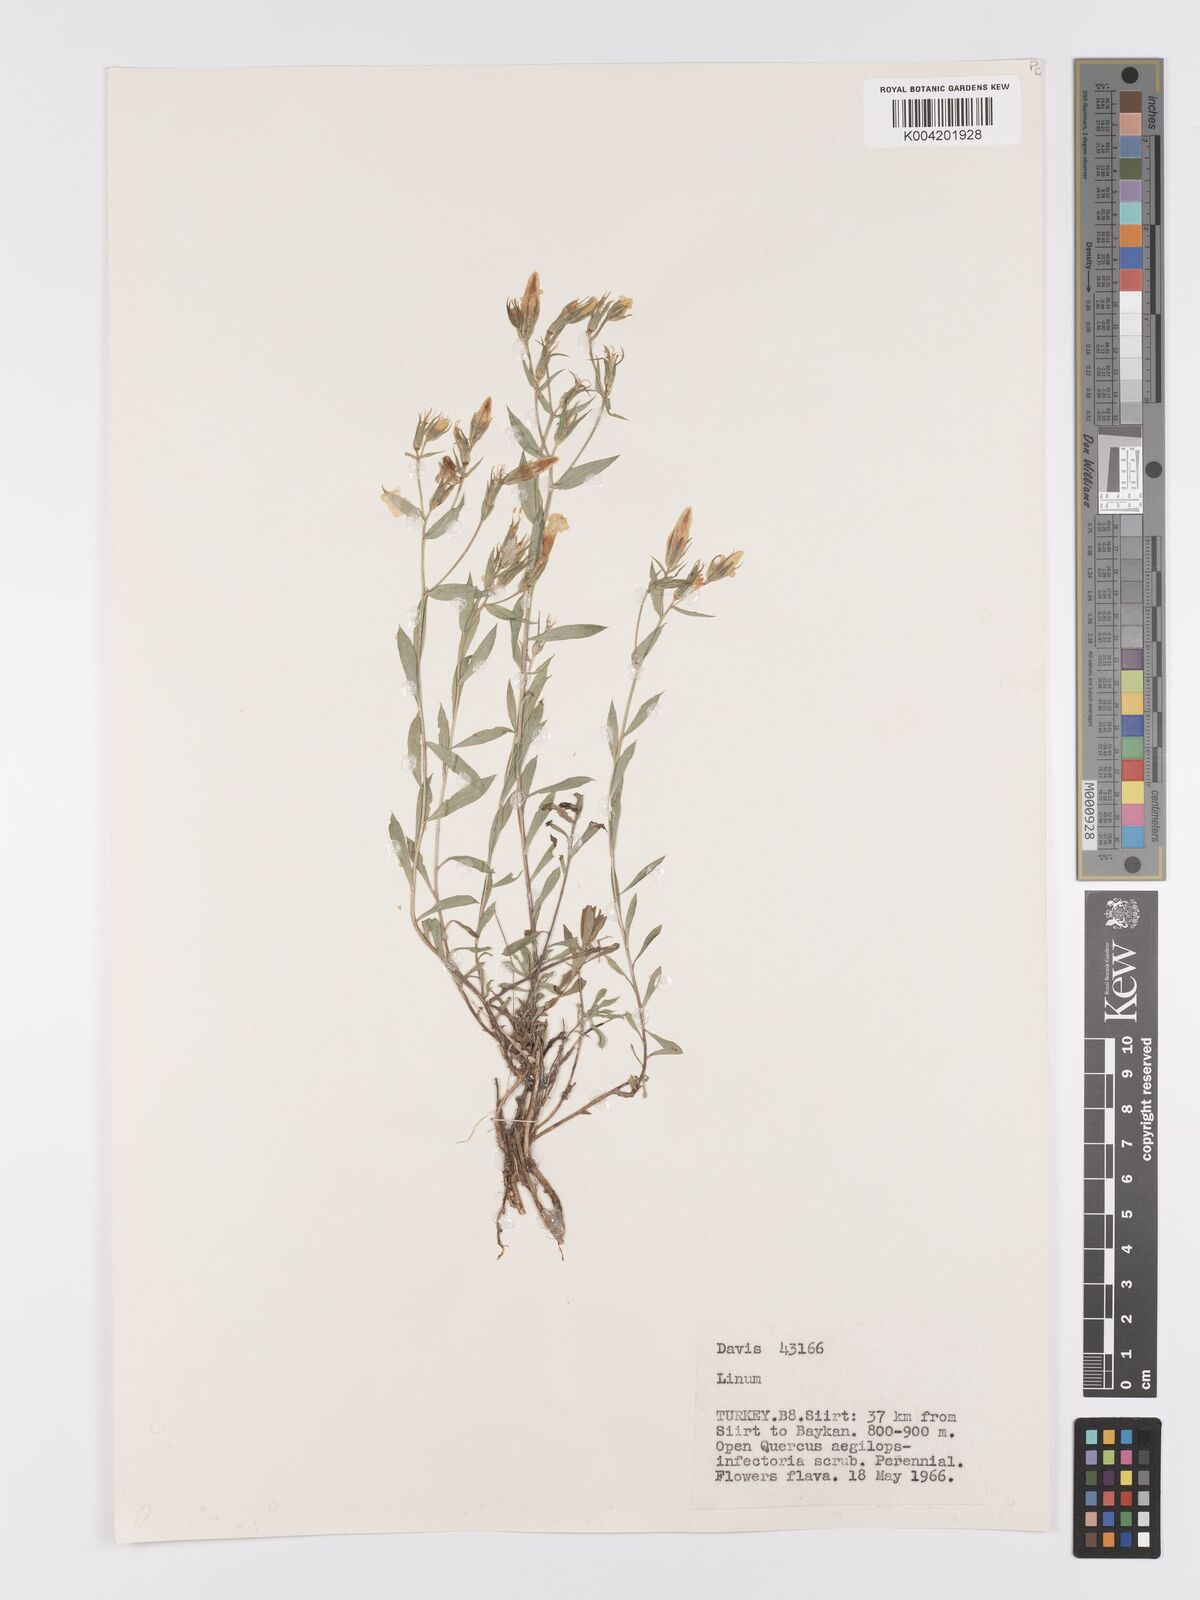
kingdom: Plantae
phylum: Tracheophyta
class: Magnoliopsida
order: Malpighiales
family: Linaceae
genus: Linum
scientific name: Linum
